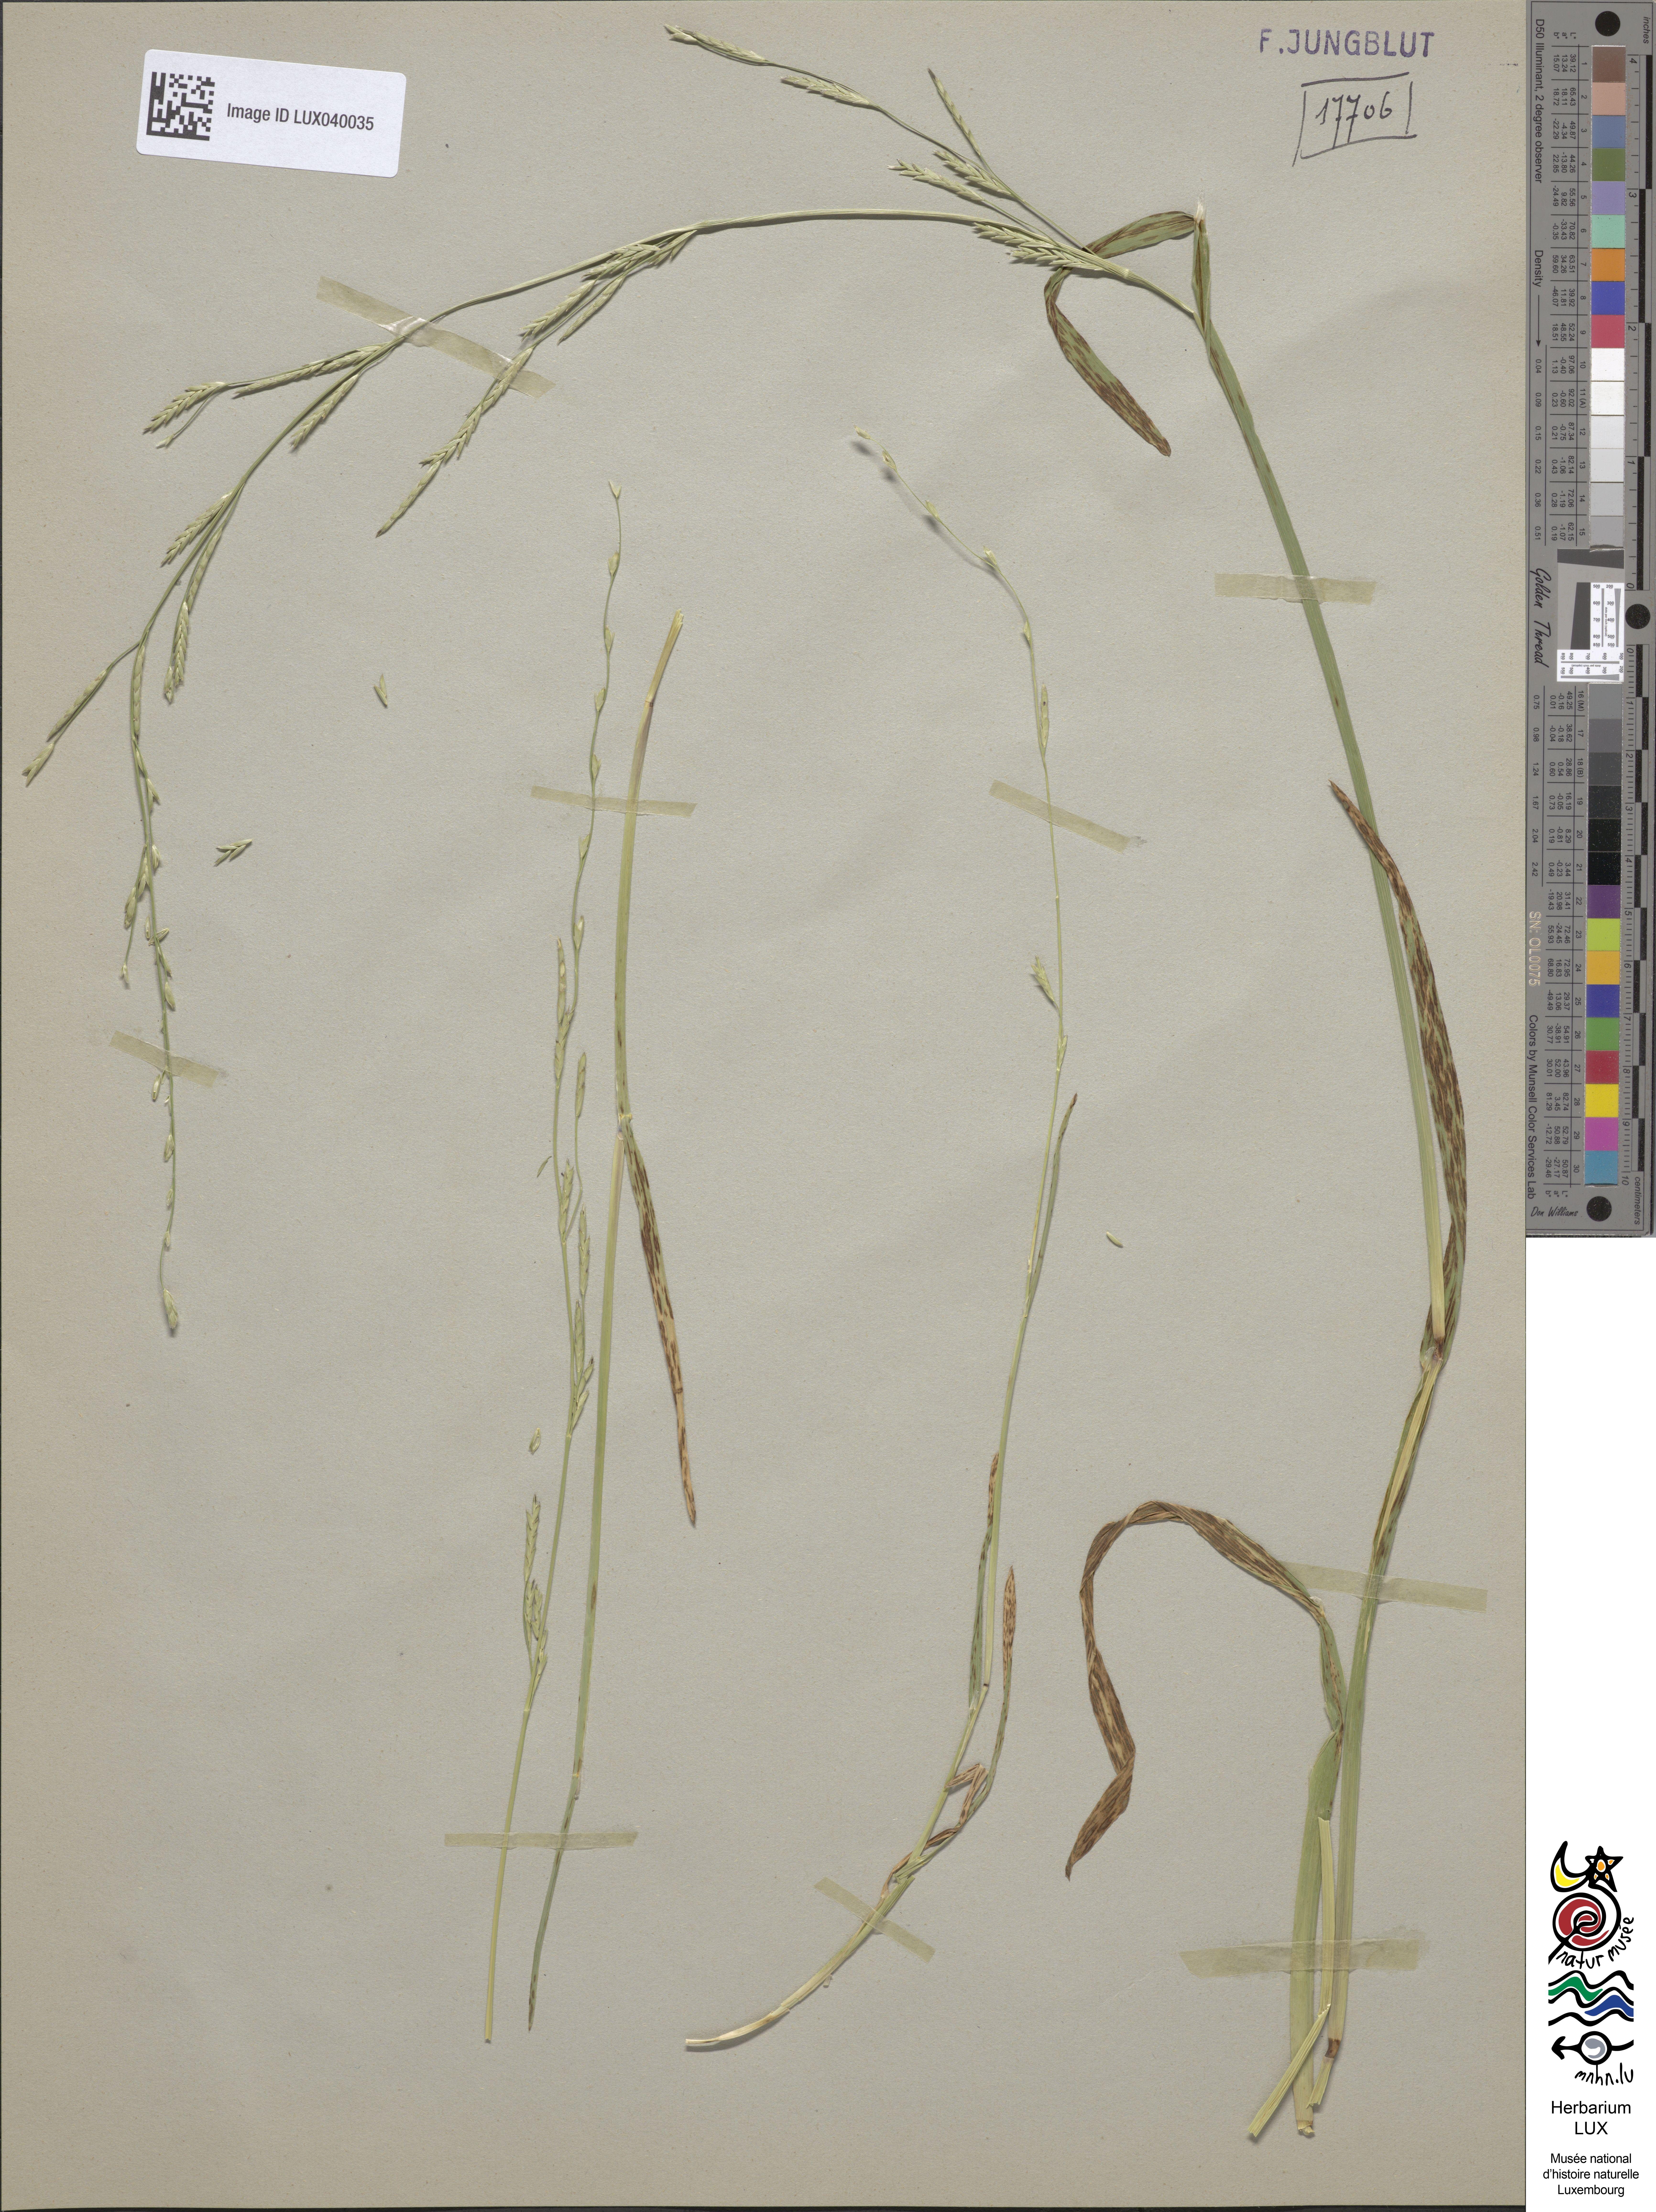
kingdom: Plantae
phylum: Tracheophyta
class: Liliopsida
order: Poales
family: Poaceae
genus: Glyceria
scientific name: Glyceria declinata
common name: Small sweet-grass
